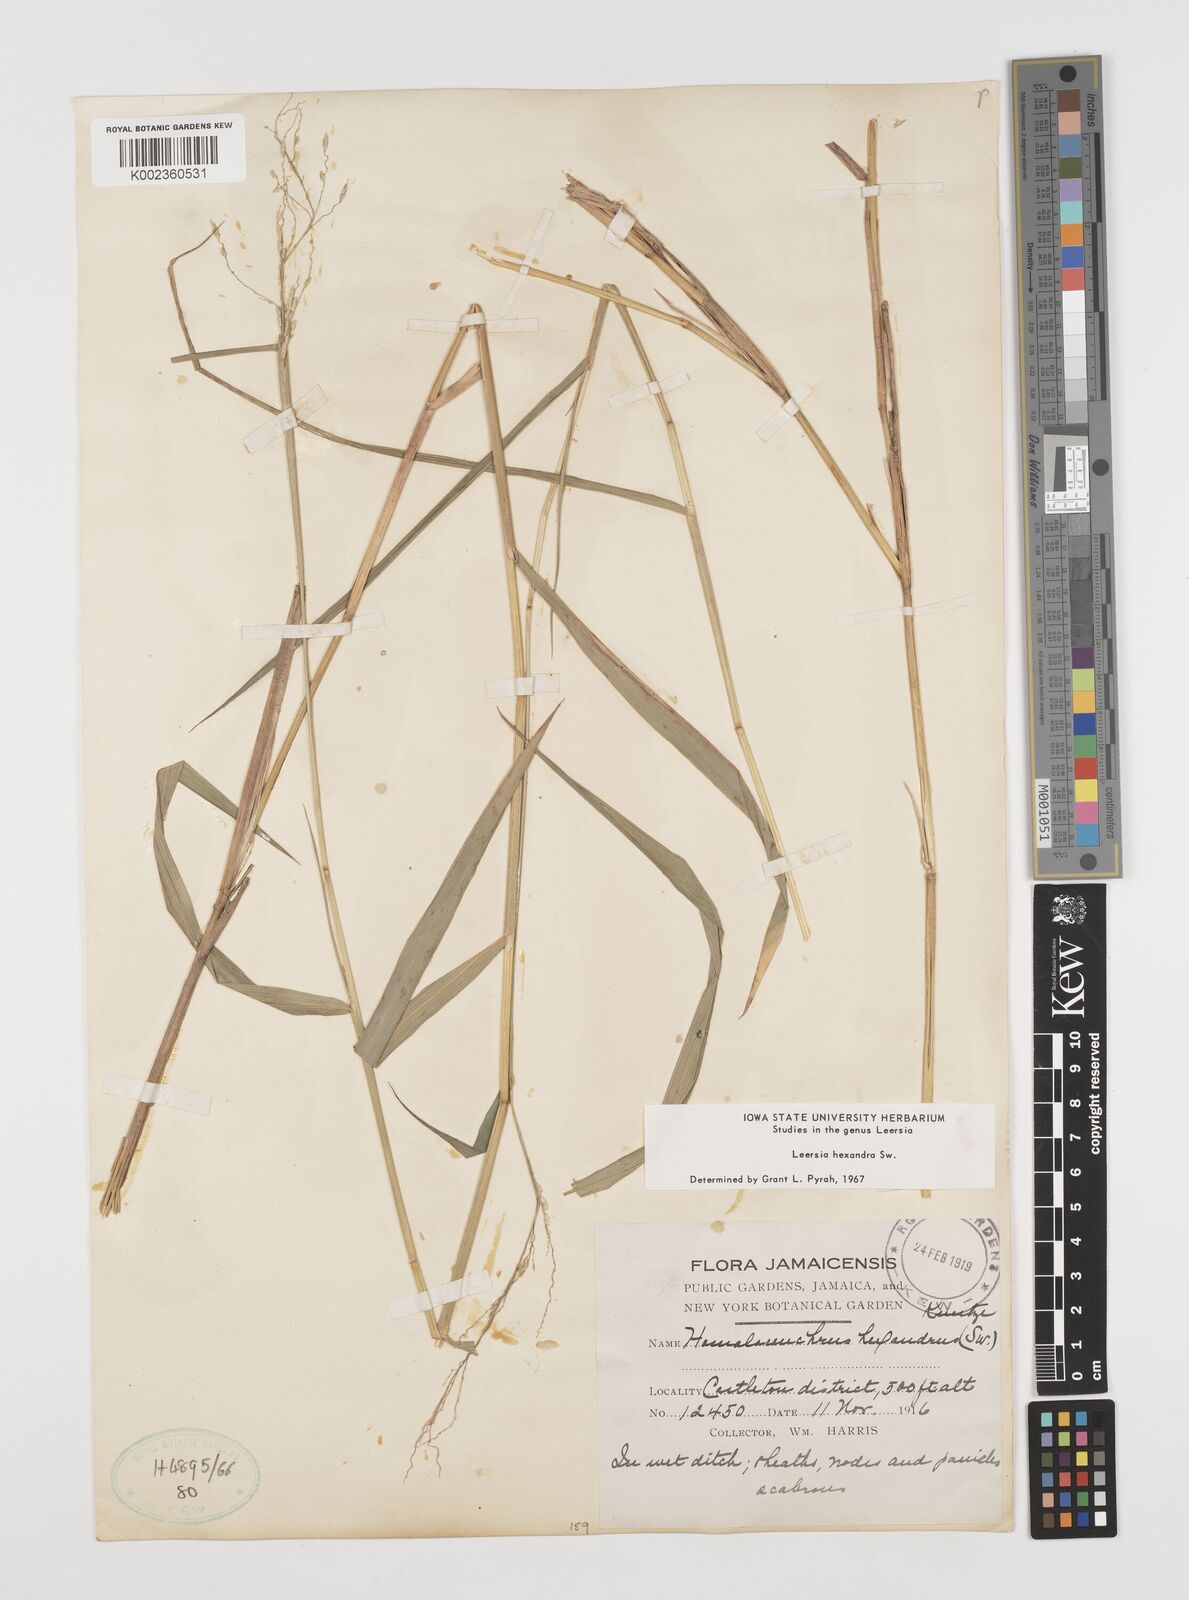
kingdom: Plantae
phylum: Tracheophyta
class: Liliopsida
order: Poales
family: Poaceae
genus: Leersia
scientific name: Leersia hexandra
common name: Southern cut grass
